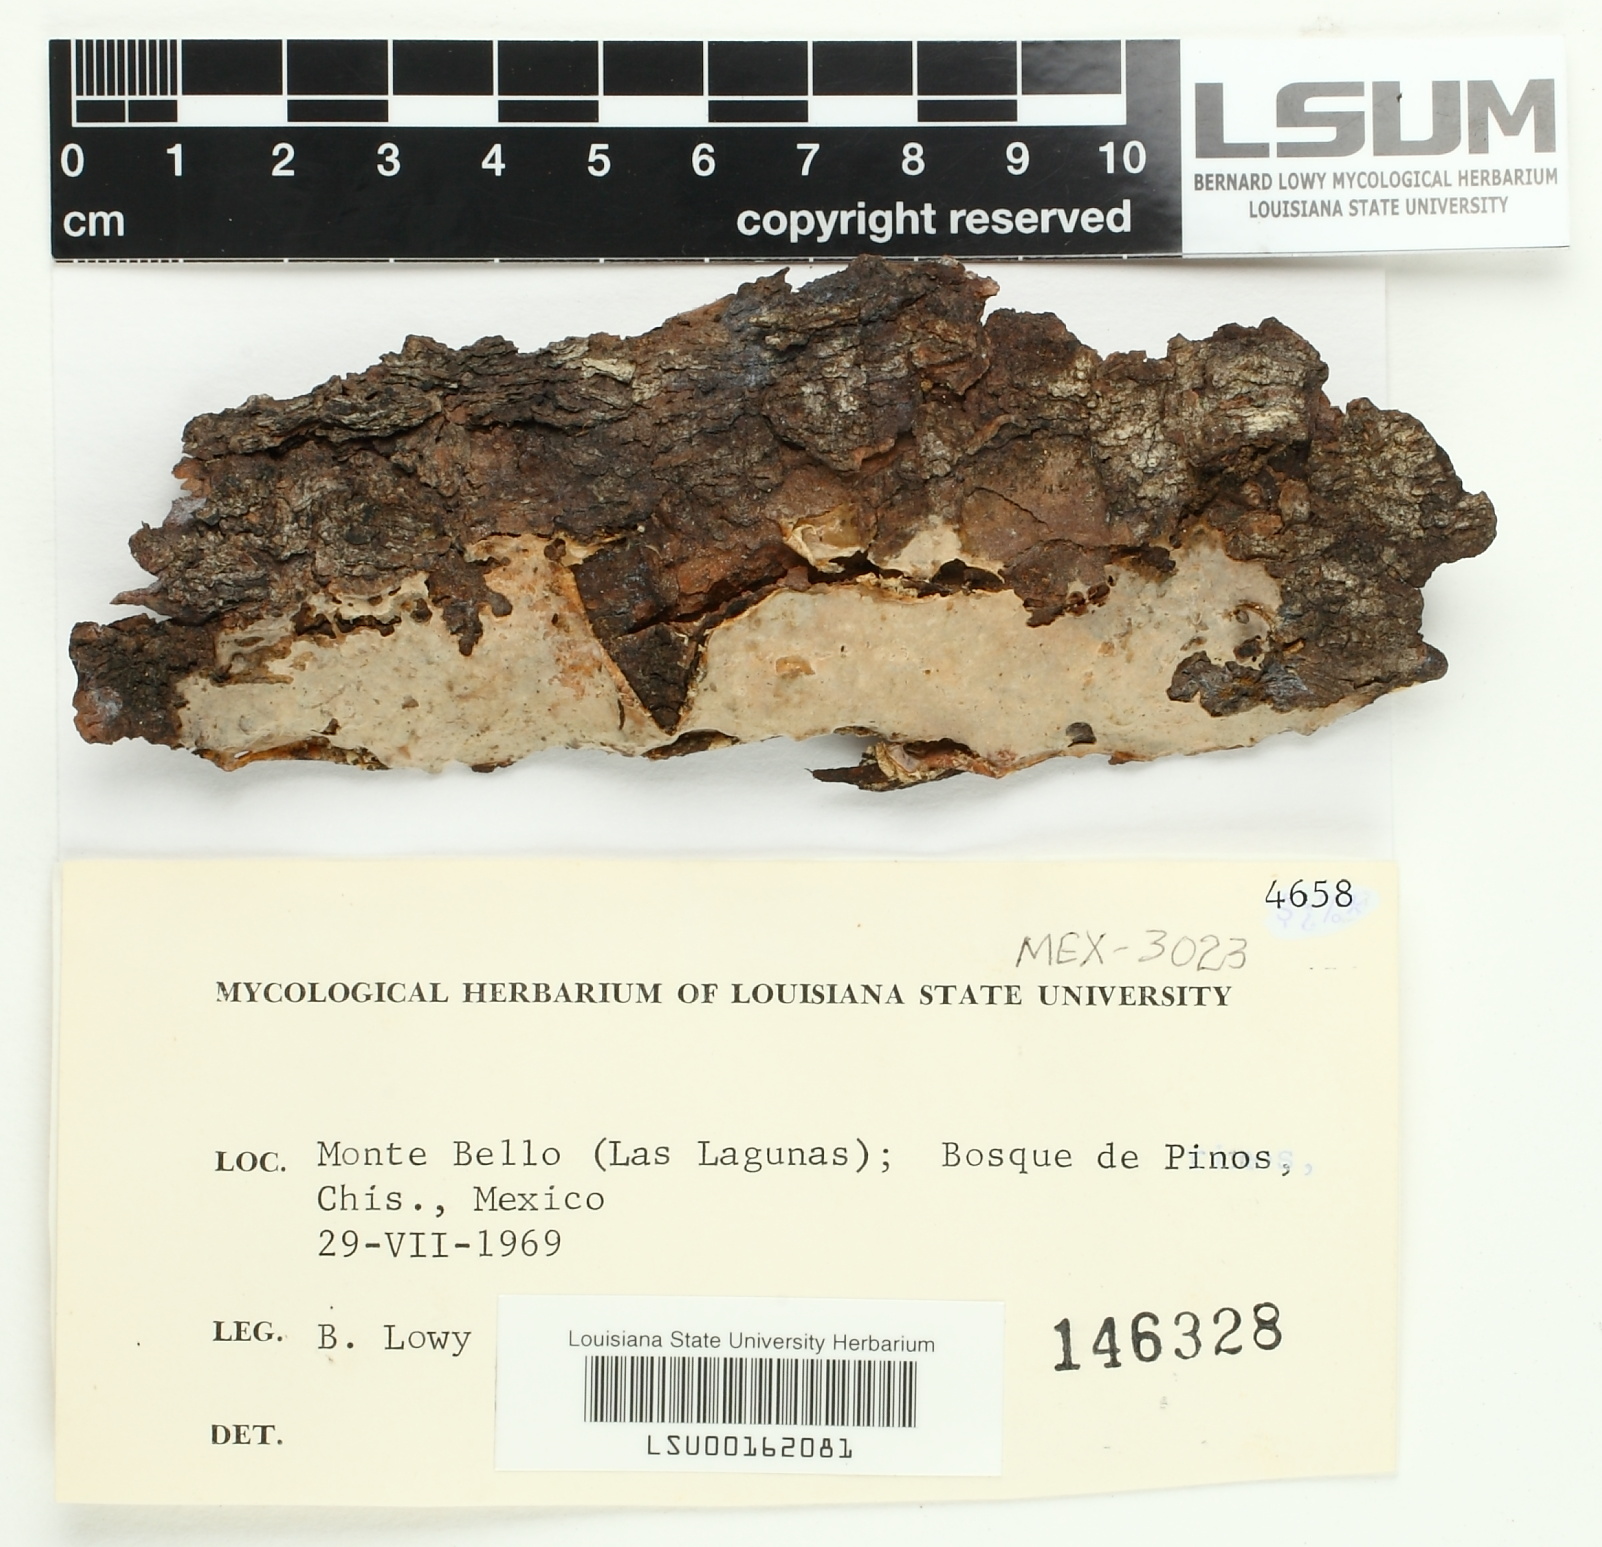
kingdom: Fungi
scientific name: Fungi
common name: Fungi
